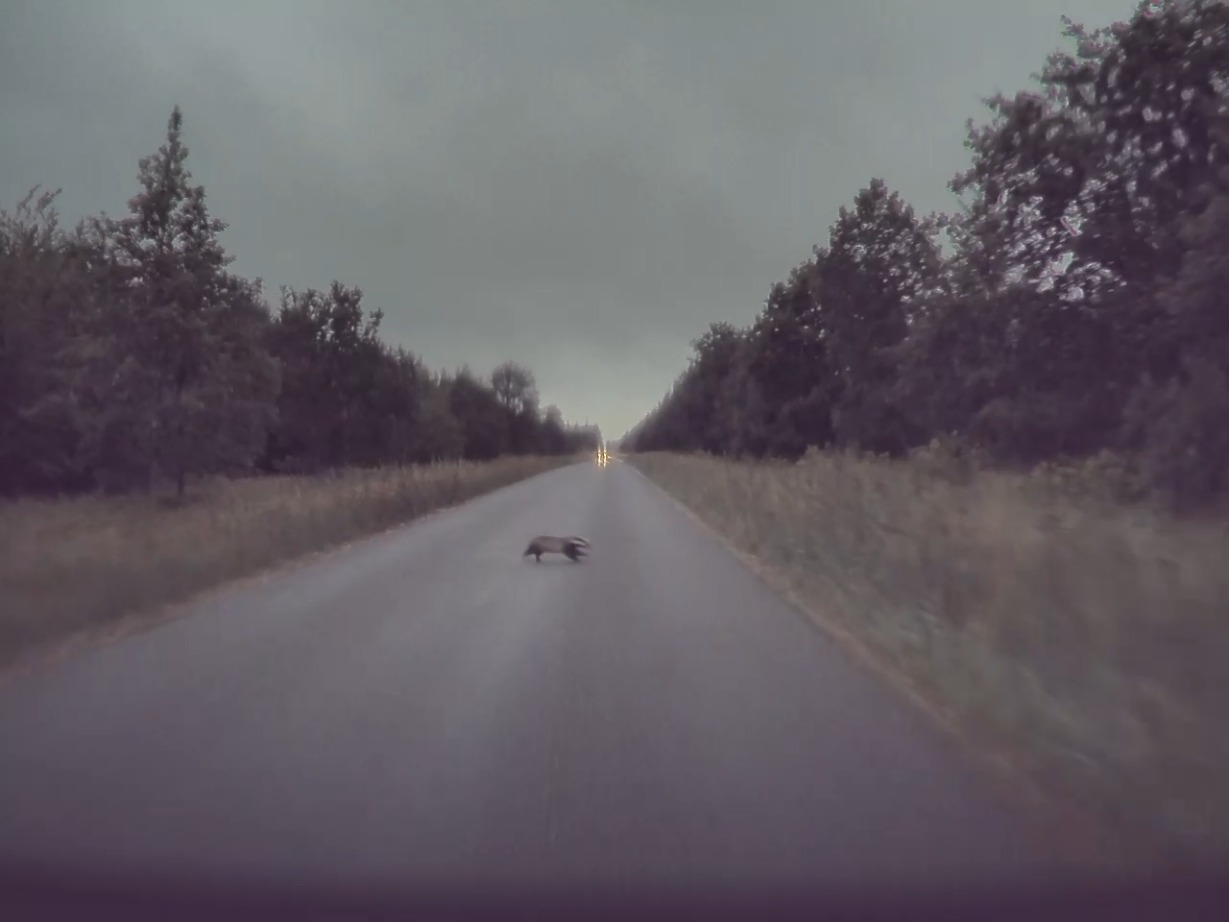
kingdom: Animalia
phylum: Chordata
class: Mammalia
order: Carnivora
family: Mustelidae
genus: Meles
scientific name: Meles meles
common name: Grævling
